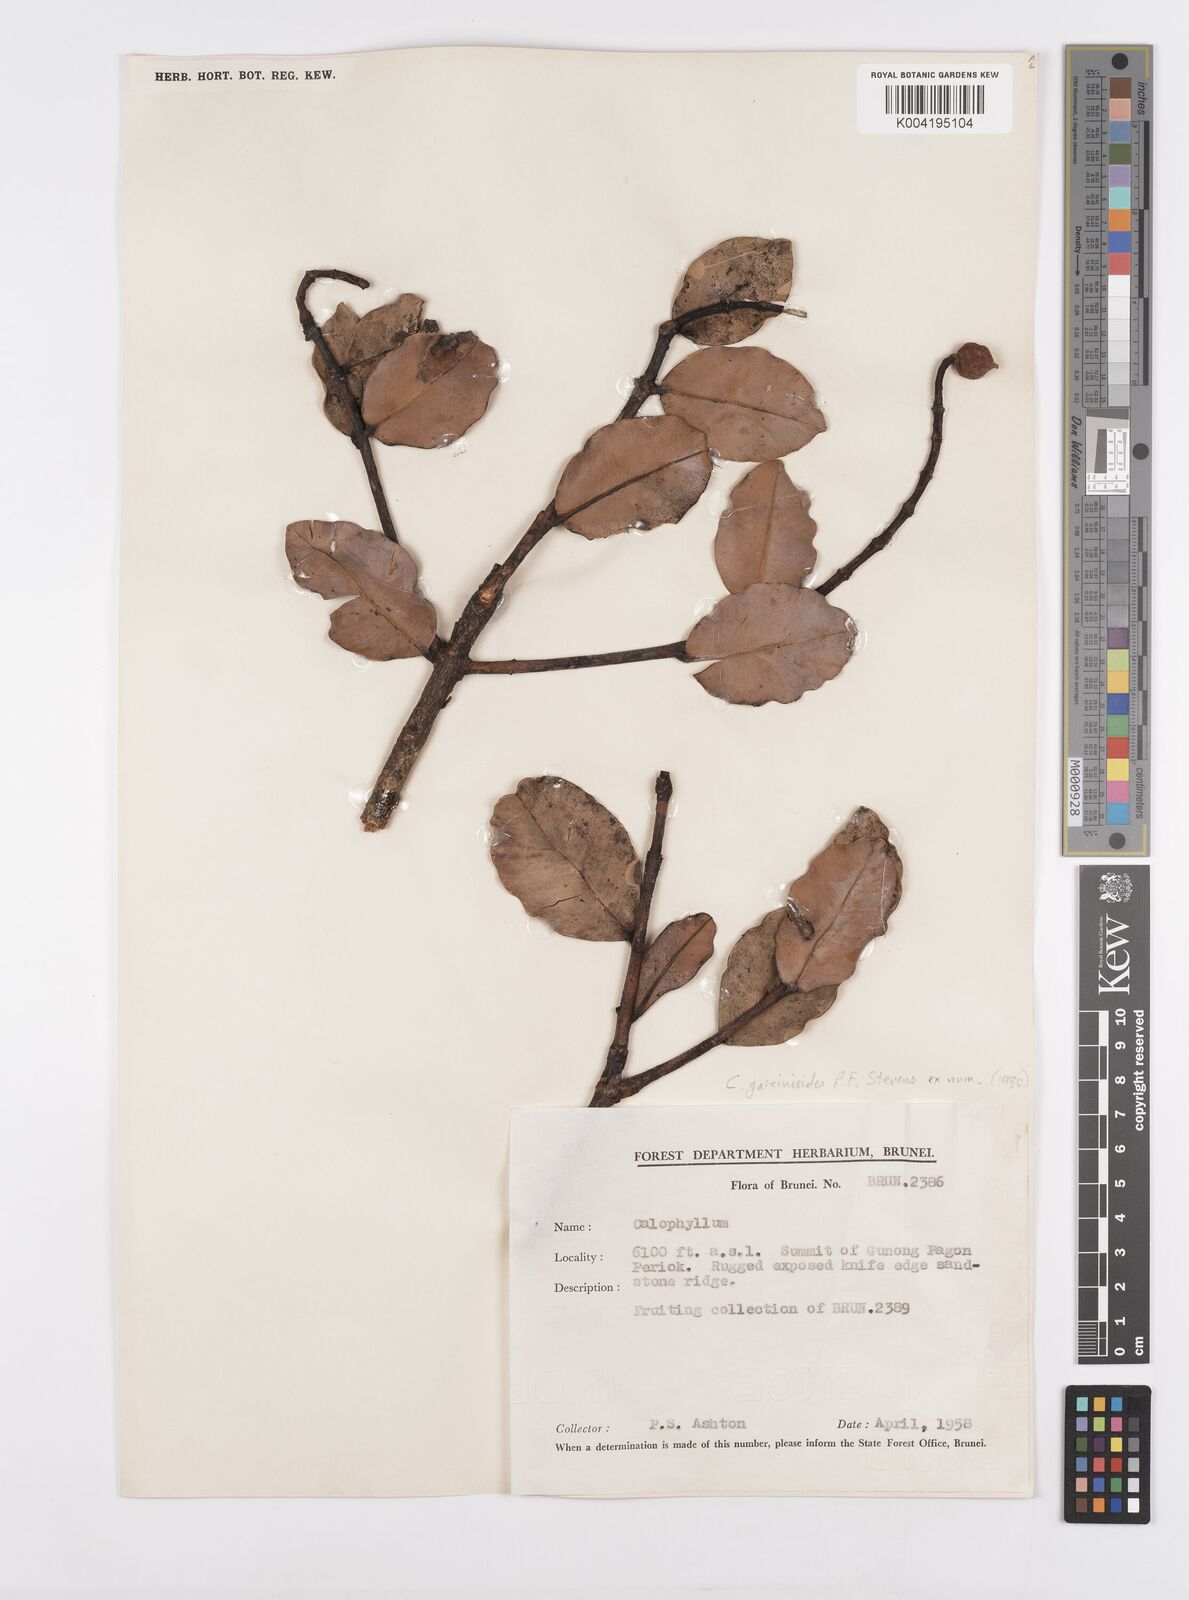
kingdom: Plantae
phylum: Tracheophyta
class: Magnoliopsida
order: Malpighiales
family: Calophyllaceae
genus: Calophyllum
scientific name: Calophyllum garcinioides
